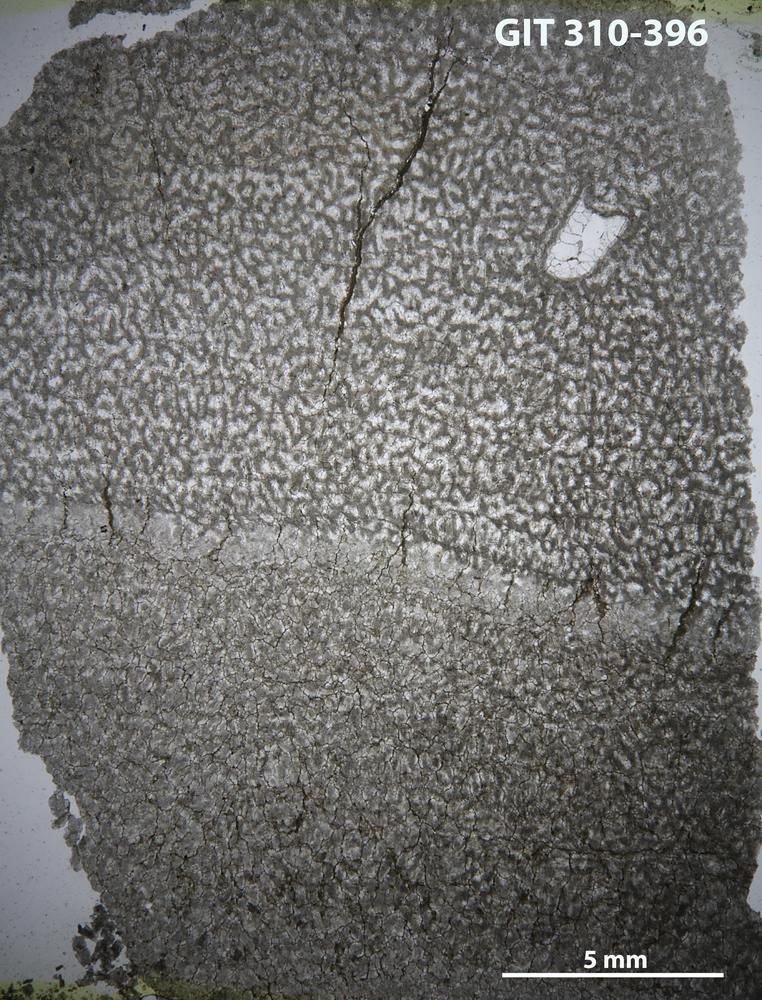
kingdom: Animalia
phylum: Porifera
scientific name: Porifera
